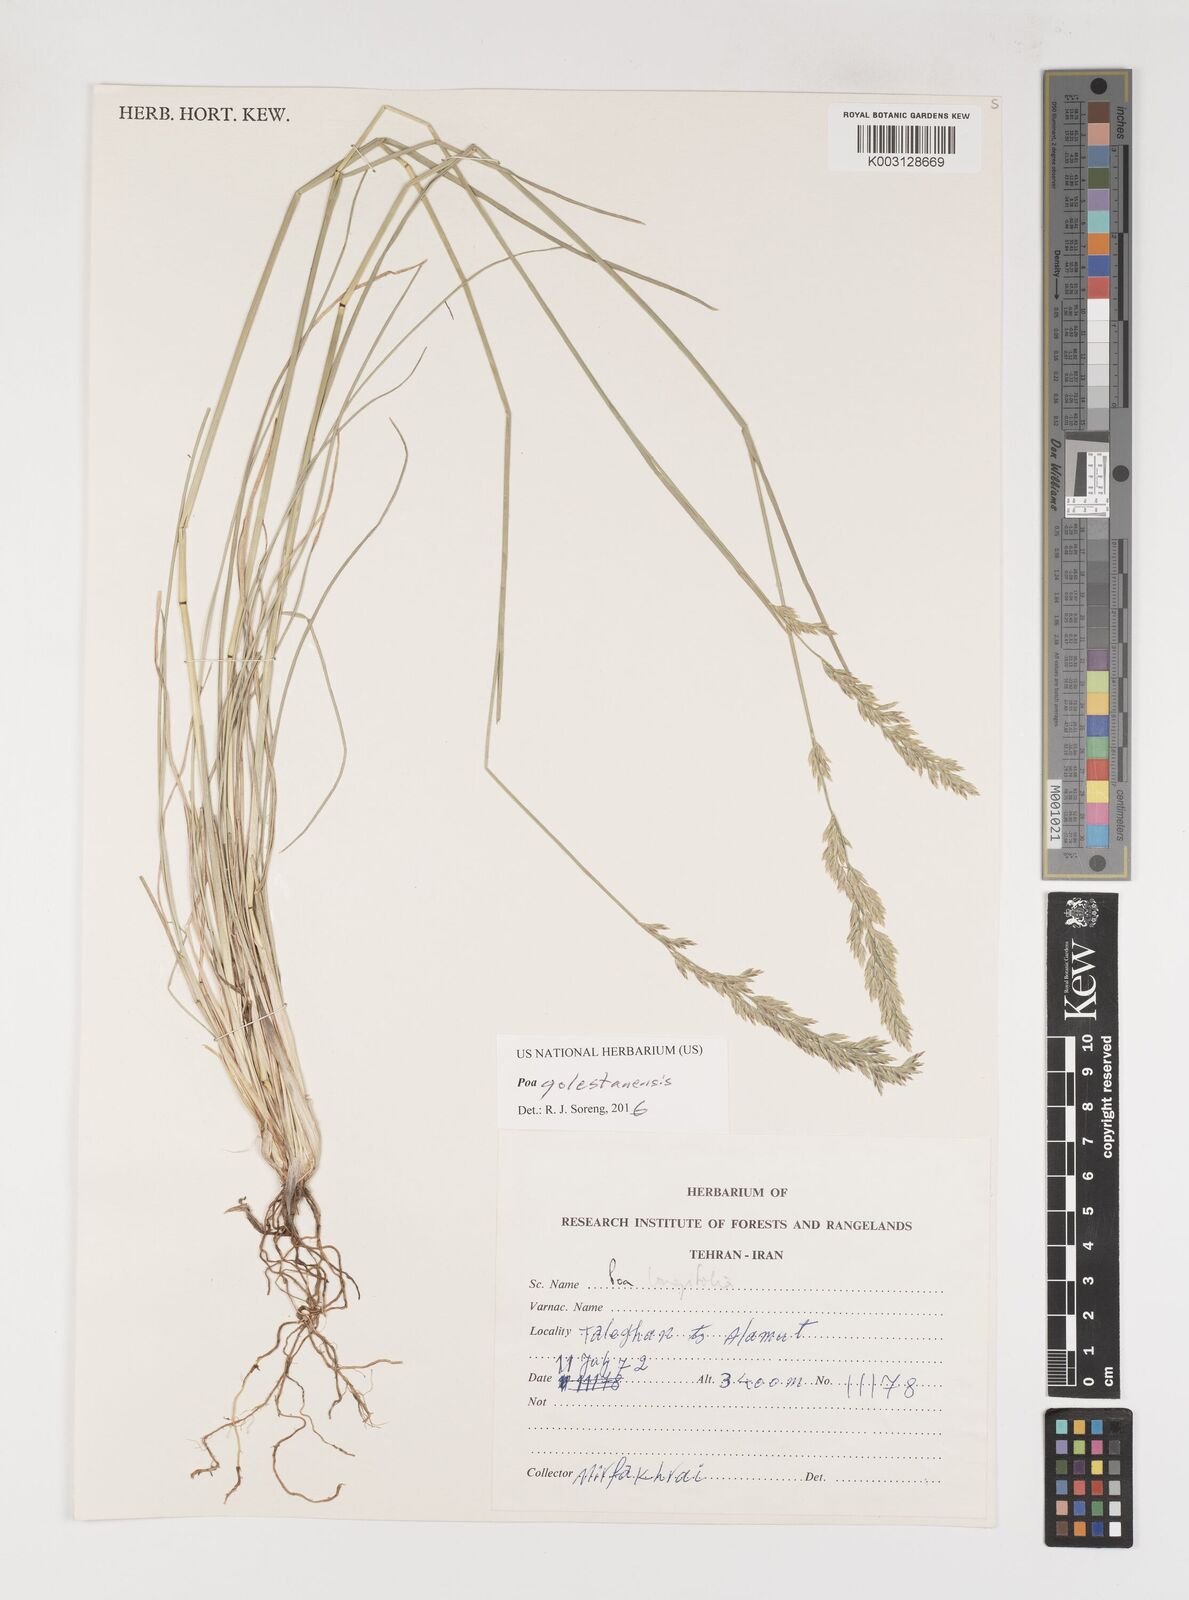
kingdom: Plantae
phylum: Tracheophyta
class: Liliopsida
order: Poales
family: Poaceae
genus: Poa
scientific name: Poa golestanensis
